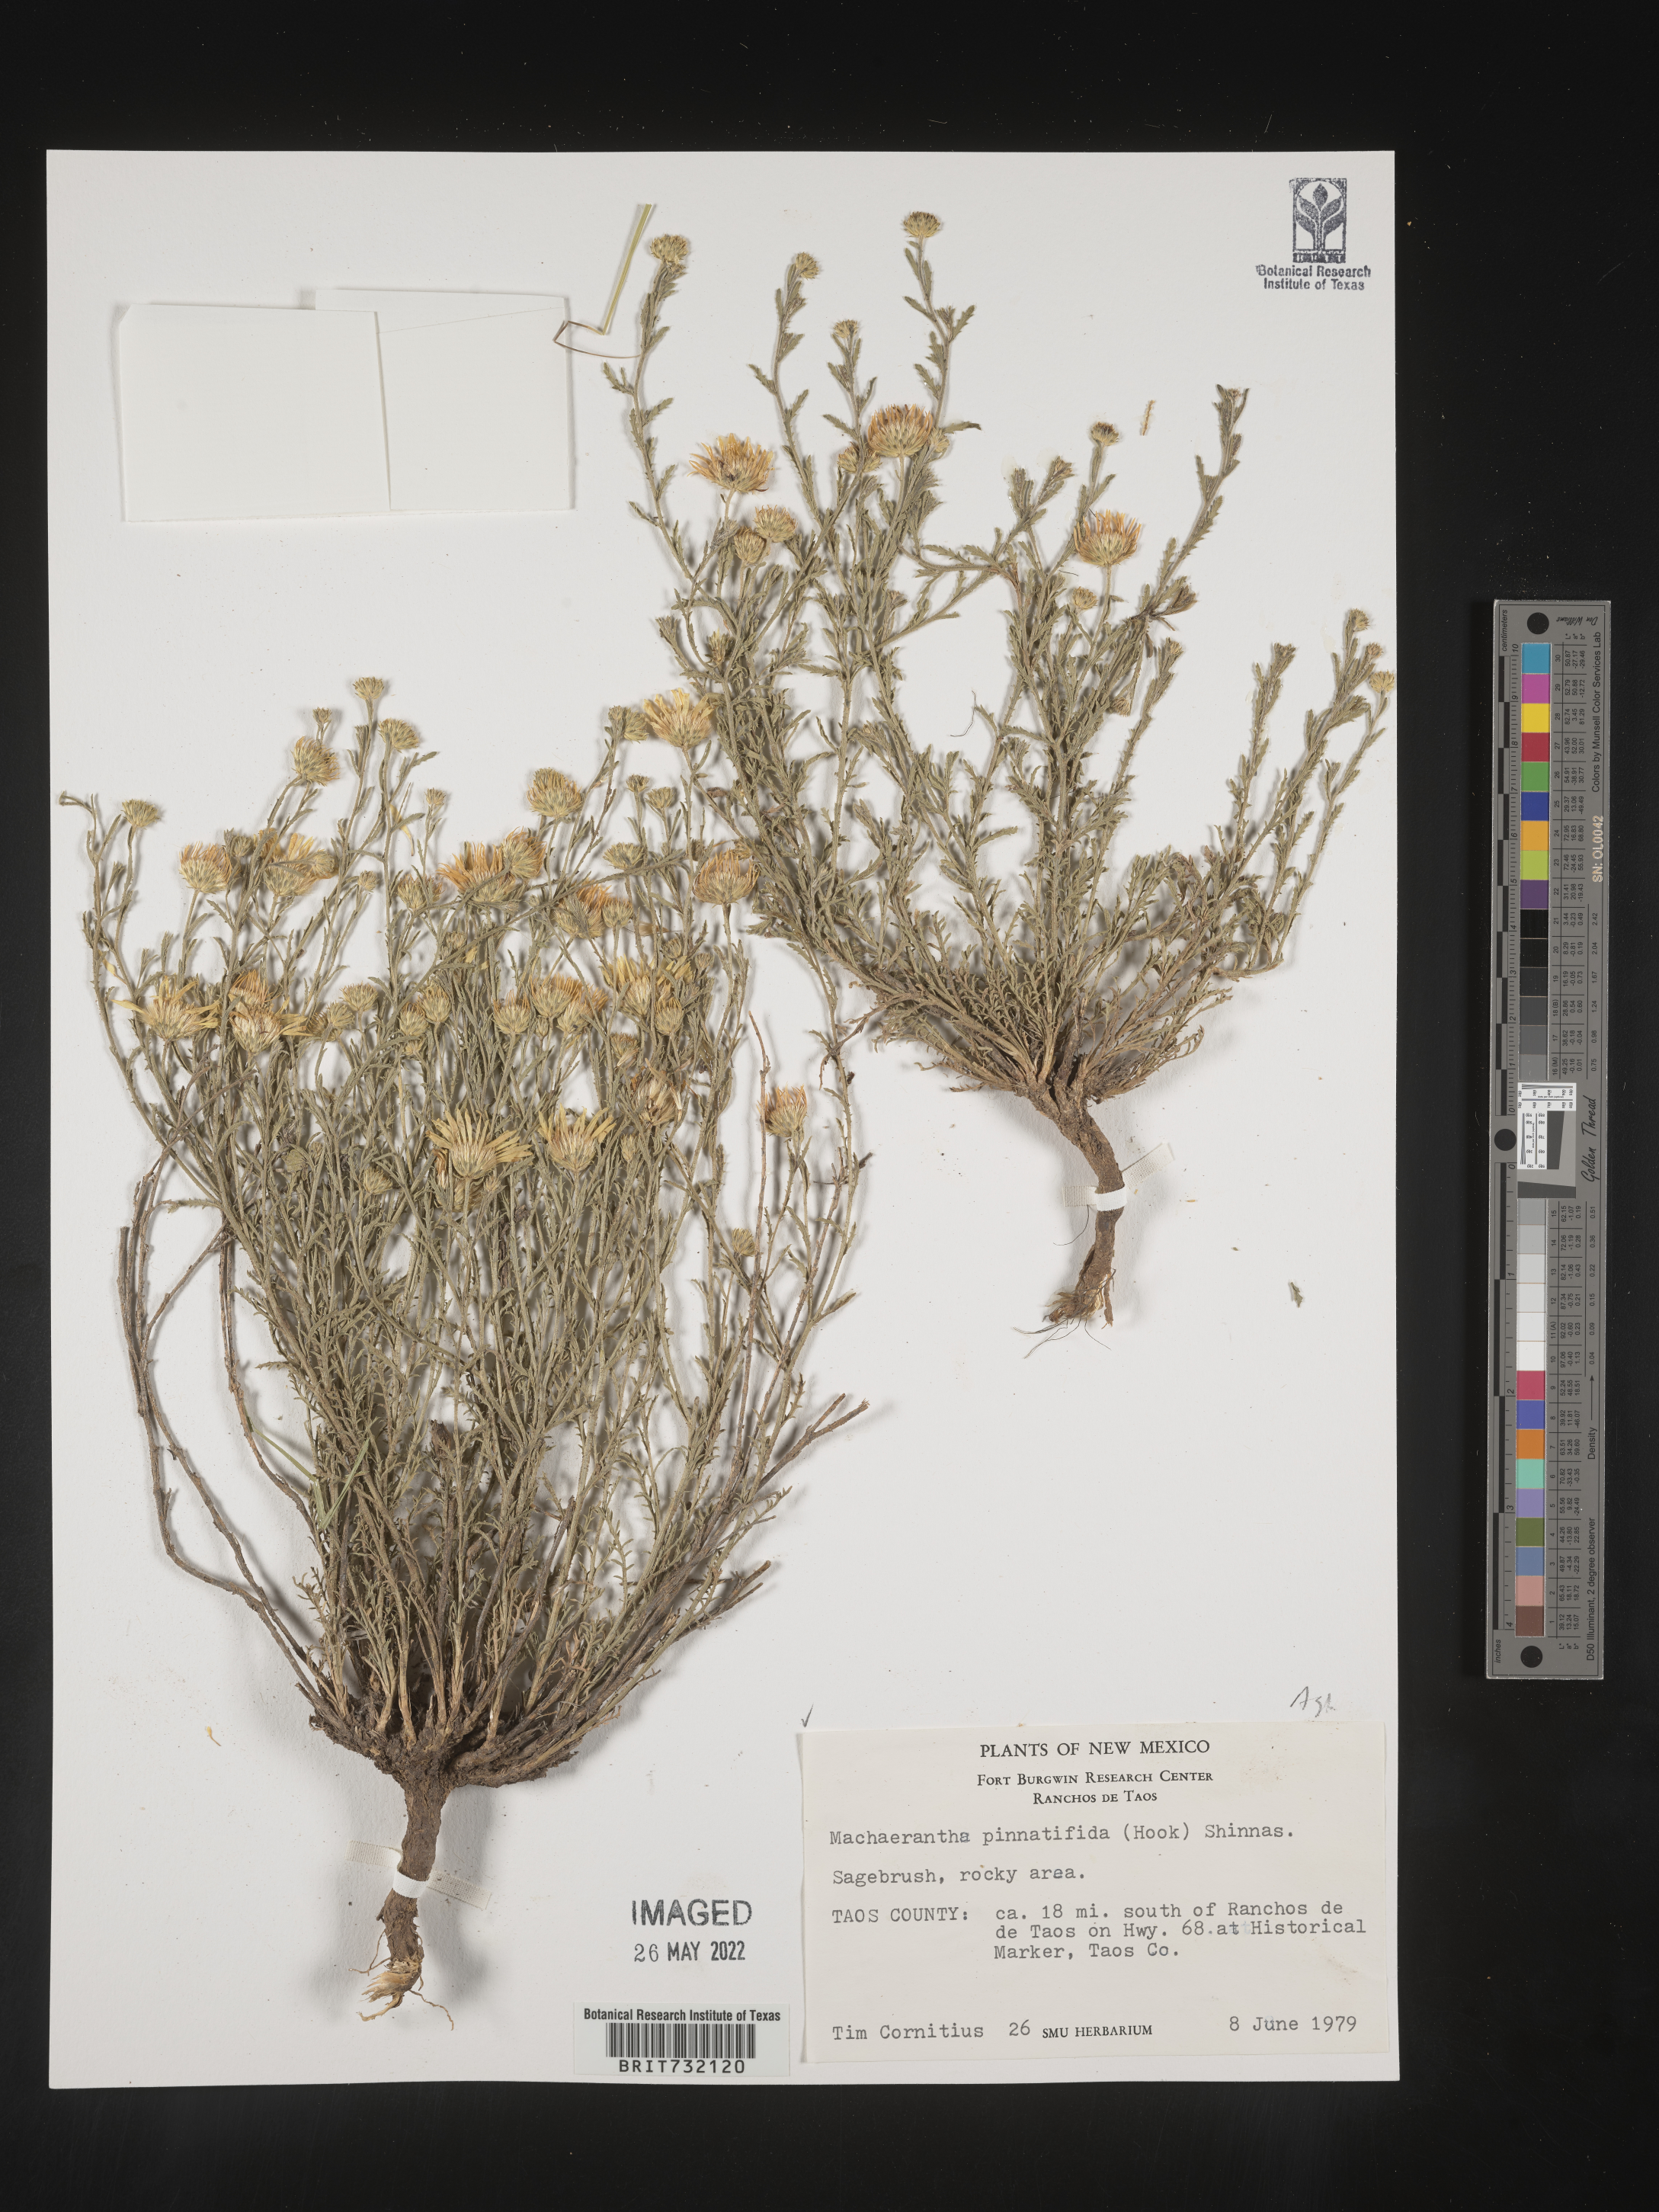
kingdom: Plantae
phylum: Tracheophyta
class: Magnoliopsida
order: Asterales
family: Asteraceae
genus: Xanthisma
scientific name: Xanthisma spinulosum
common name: Spiny goldenweed
